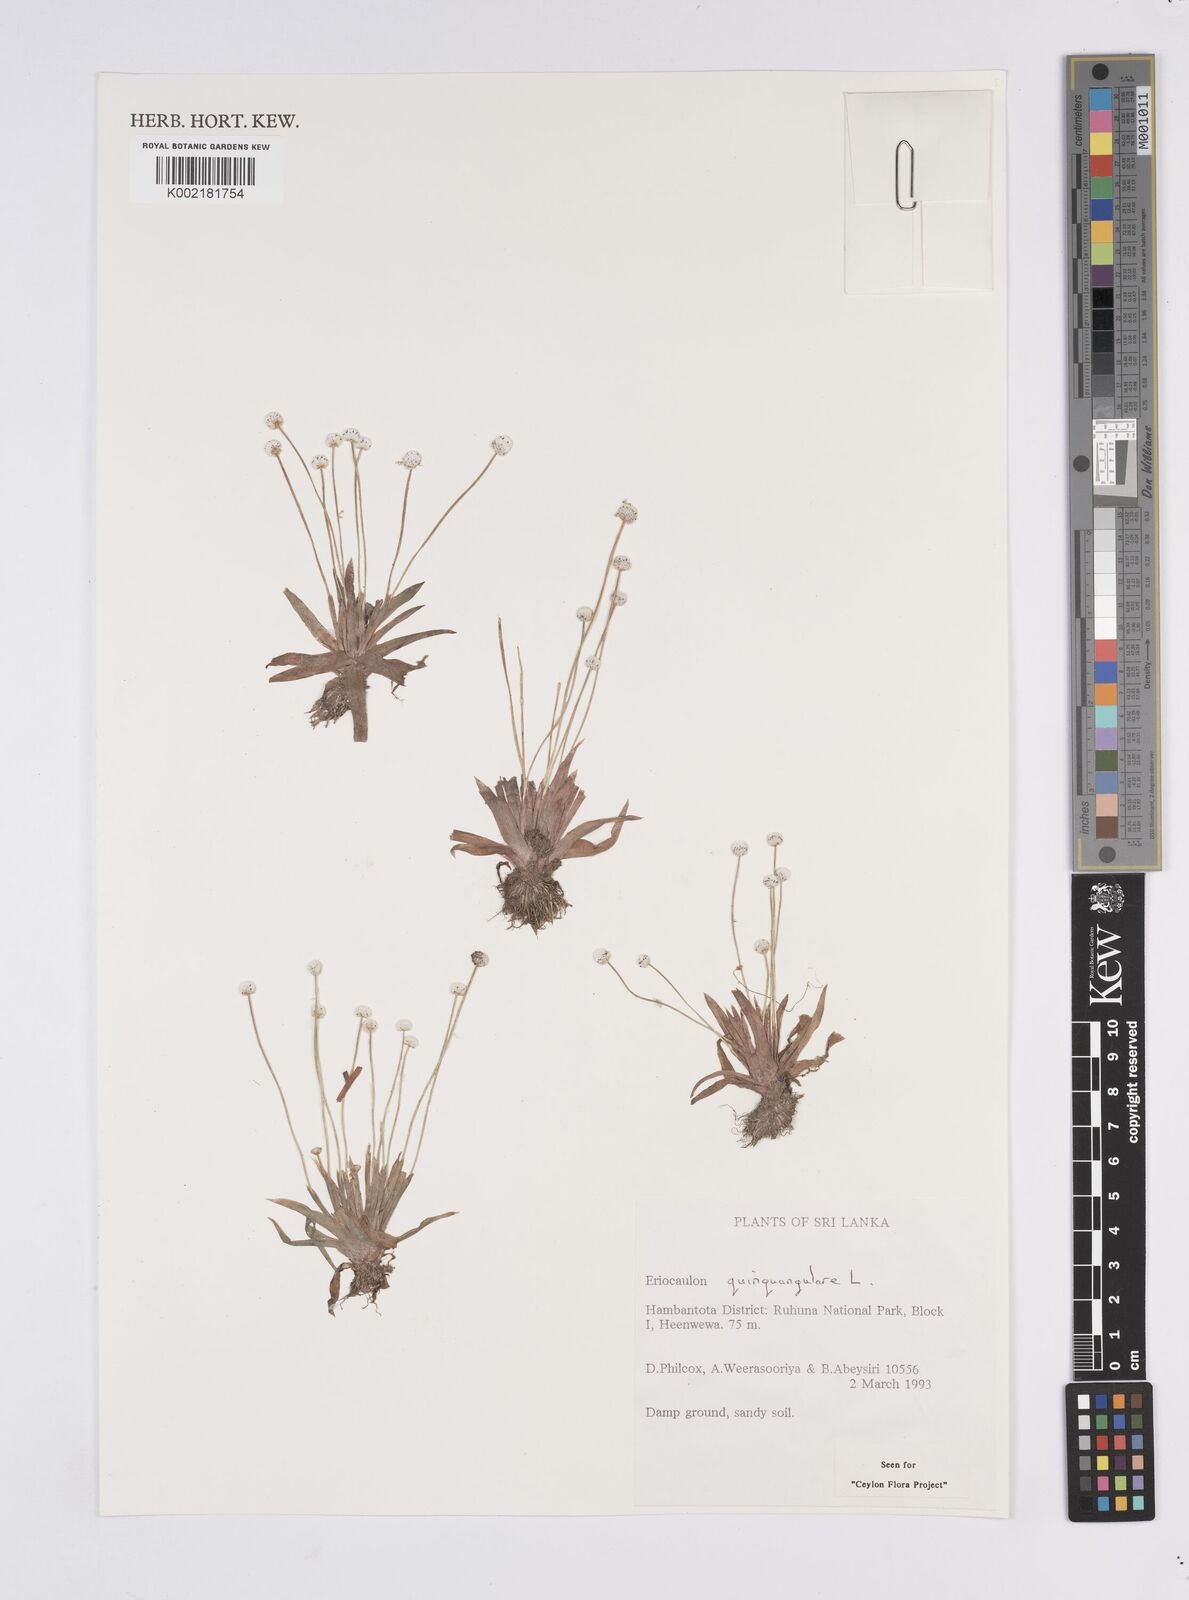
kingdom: Plantae
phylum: Tracheophyta
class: Liliopsida
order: Poales
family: Eriocaulaceae
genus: Eriocaulon
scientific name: Eriocaulon quinquangulare
